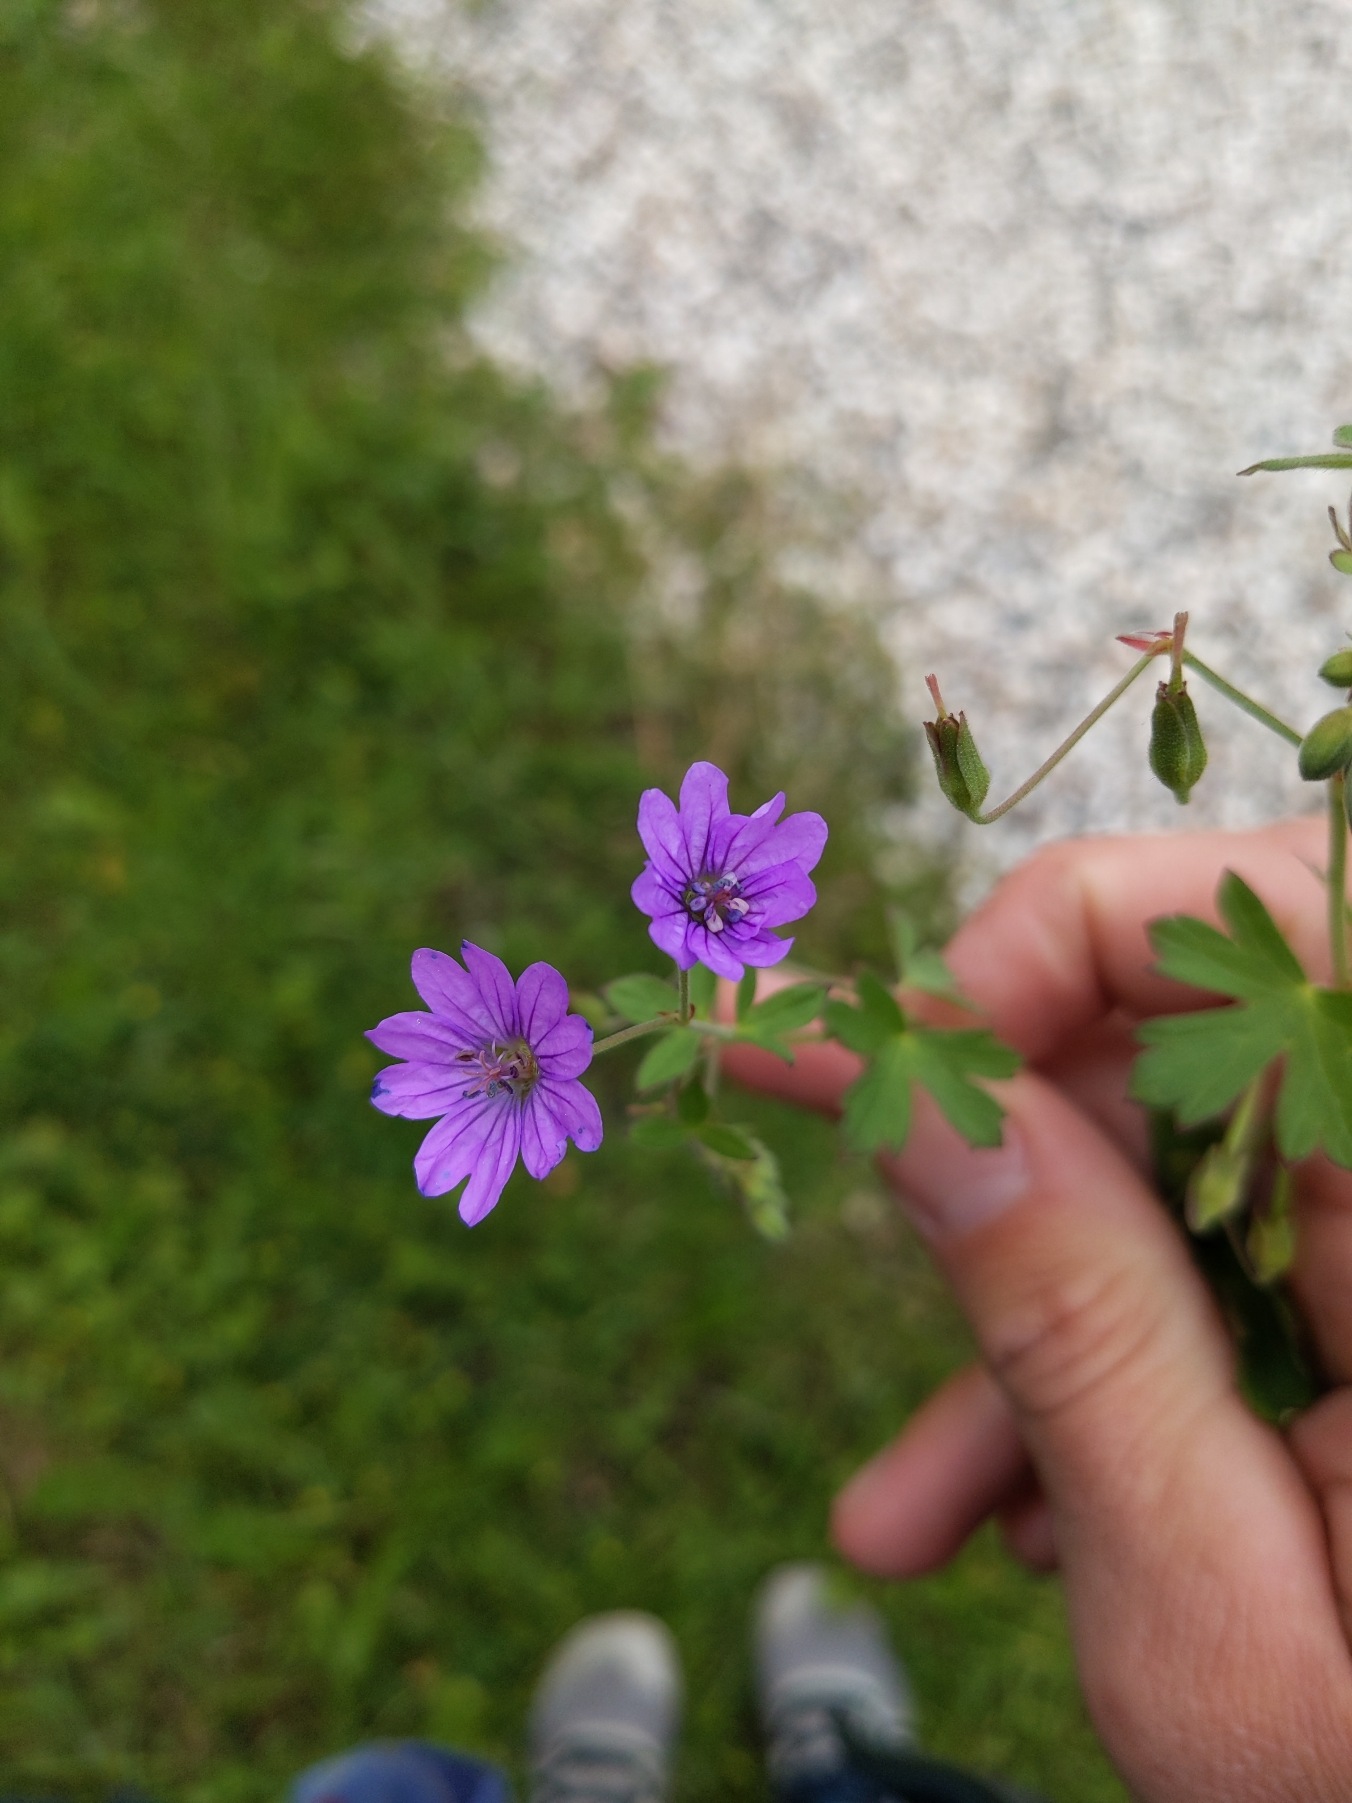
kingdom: Plantae
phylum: Tracheophyta
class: Magnoliopsida
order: Geraniales
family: Geraniaceae
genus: Geranium
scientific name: Geranium pyrenaicum
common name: Pyrenæisk storkenæb
